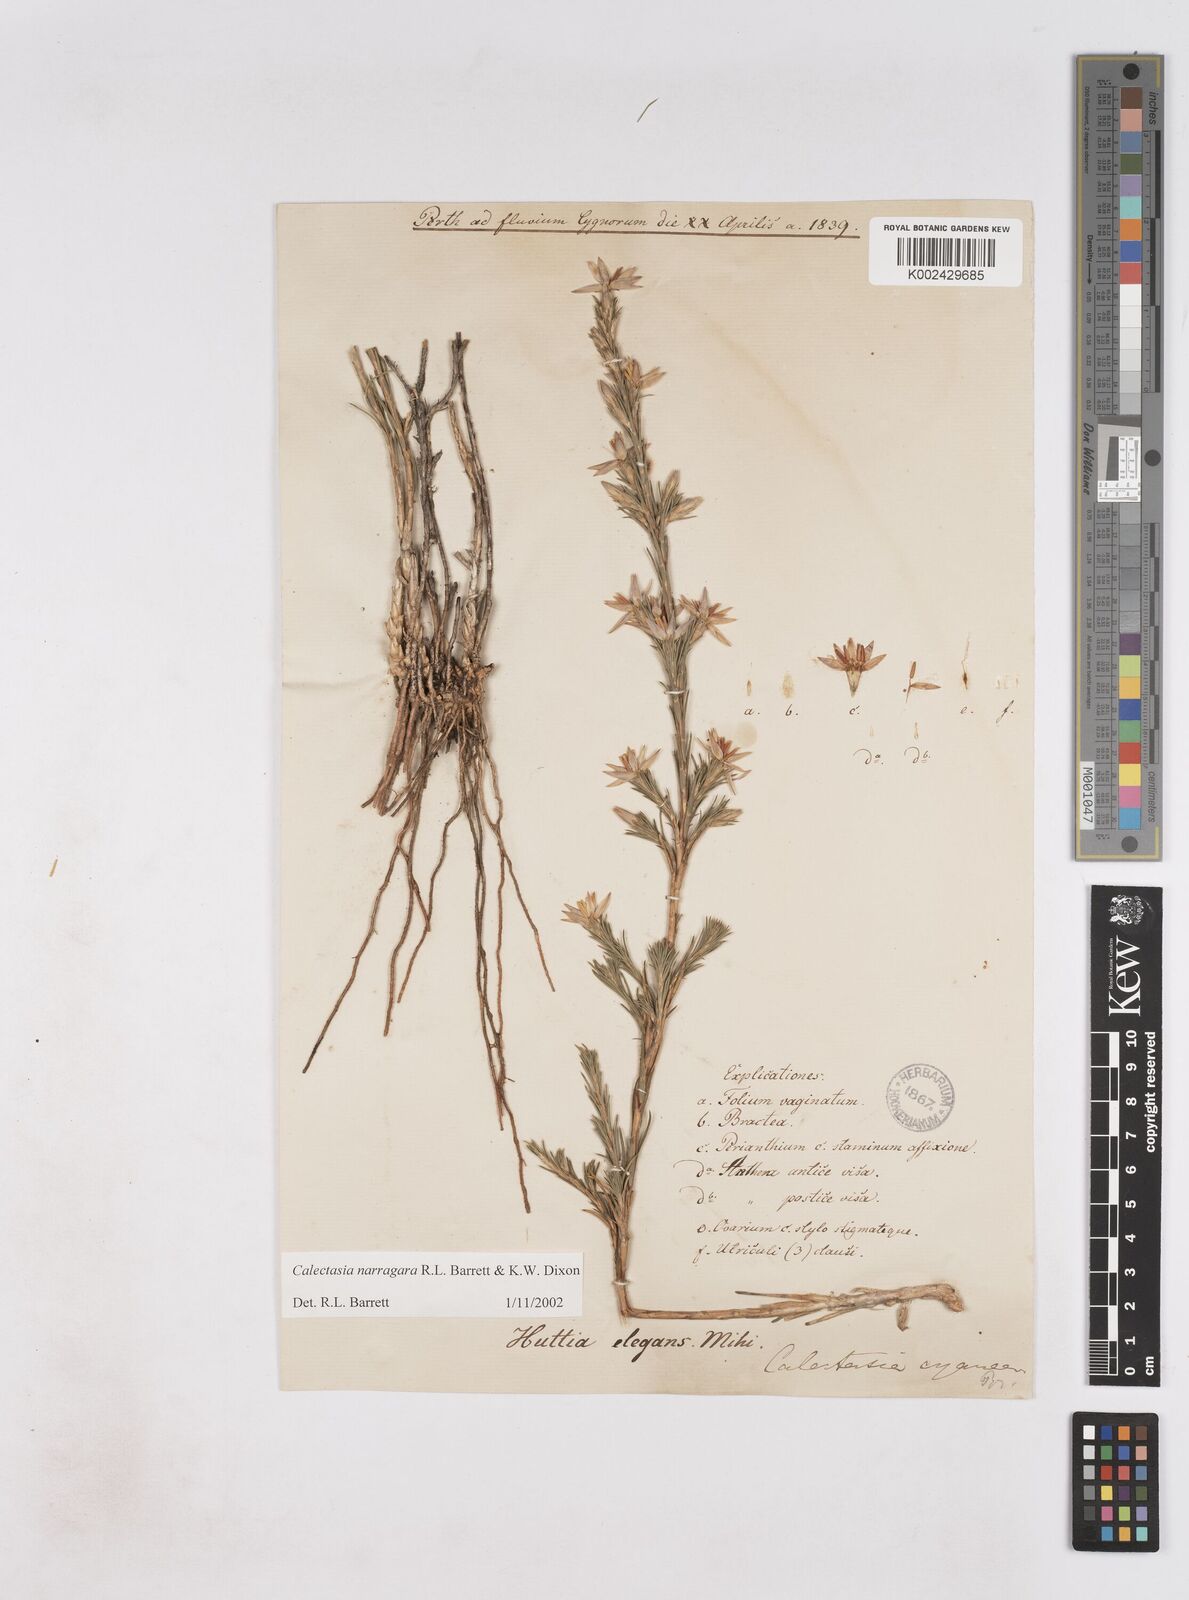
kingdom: Plantae
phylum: Tracheophyta
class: Liliopsida
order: Arecales
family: Dasypogonaceae
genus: Calectasia
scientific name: Calectasia narragara
